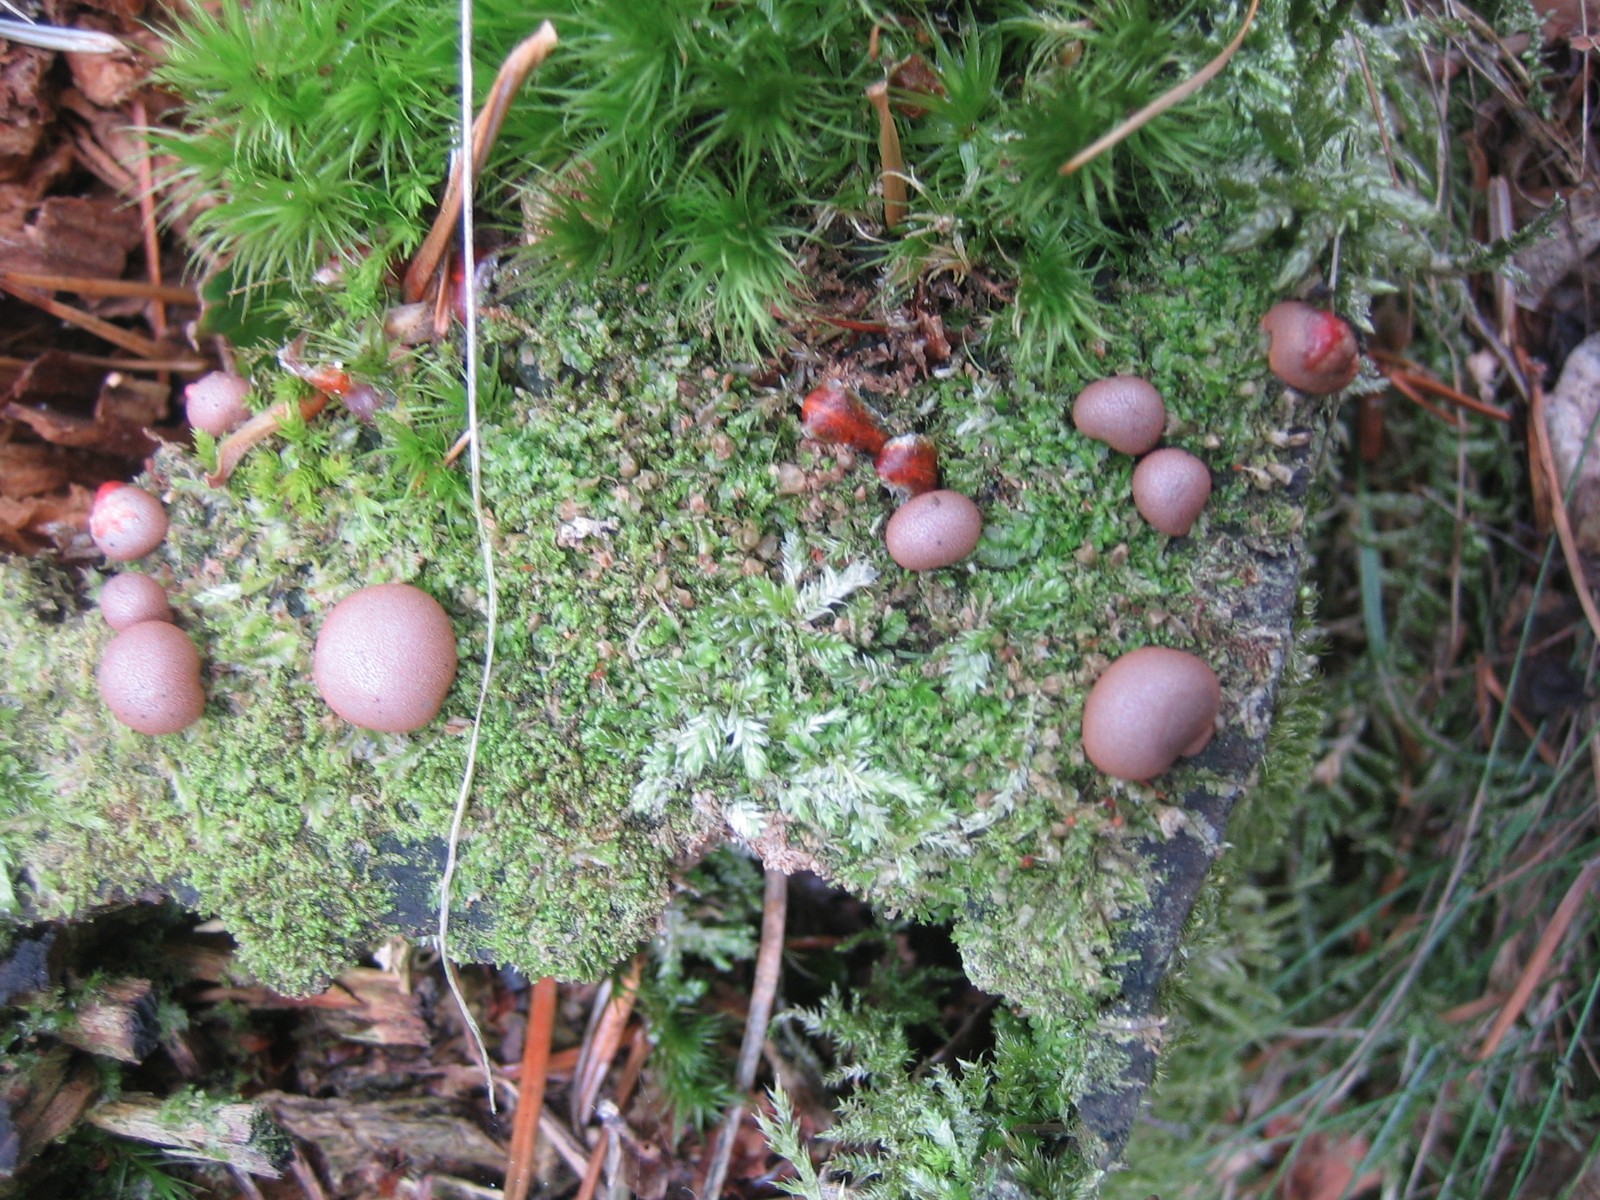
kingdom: Protozoa
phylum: Mycetozoa
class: Myxomycetes
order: Cribrariales
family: Tubiferaceae
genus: Lycogala
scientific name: Lycogala epidendrum
